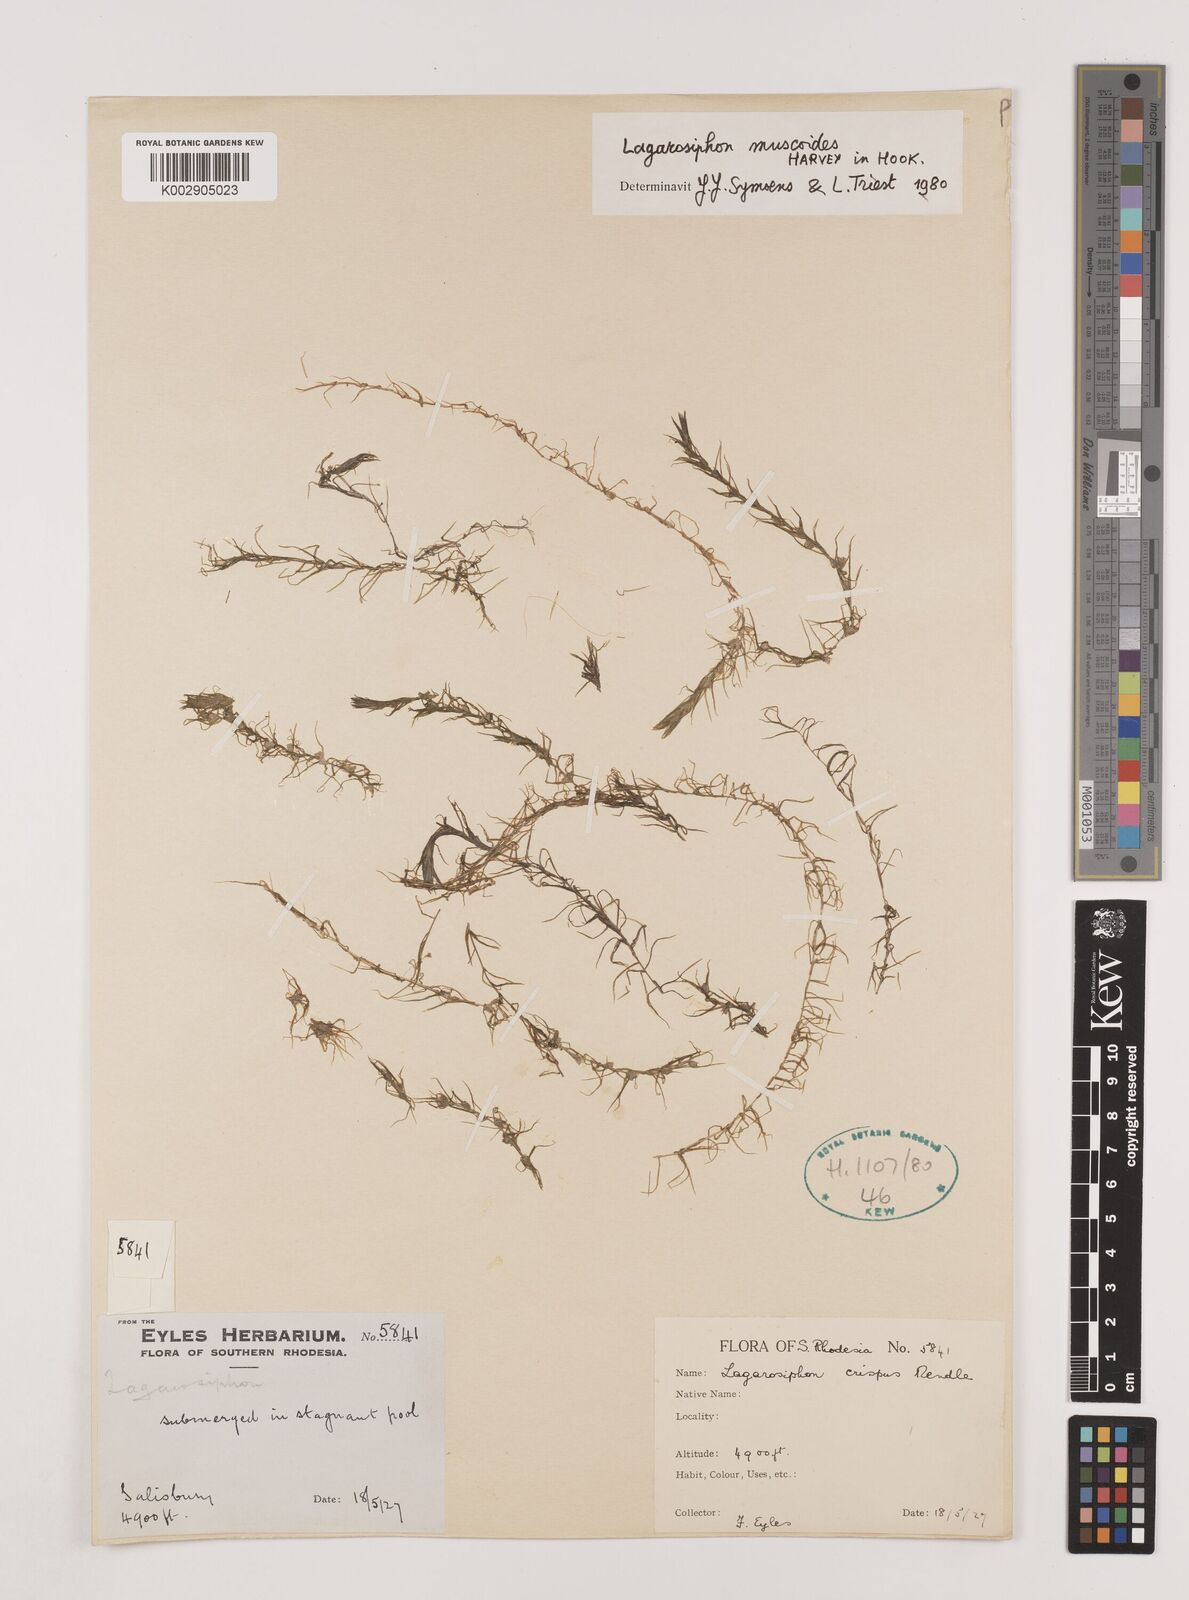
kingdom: Plantae
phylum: Tracheophyta
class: Liliopsida
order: Alismatales
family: Hydrocharitaceae
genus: Lagarosiphon
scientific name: Lagarosiphon muscoides
